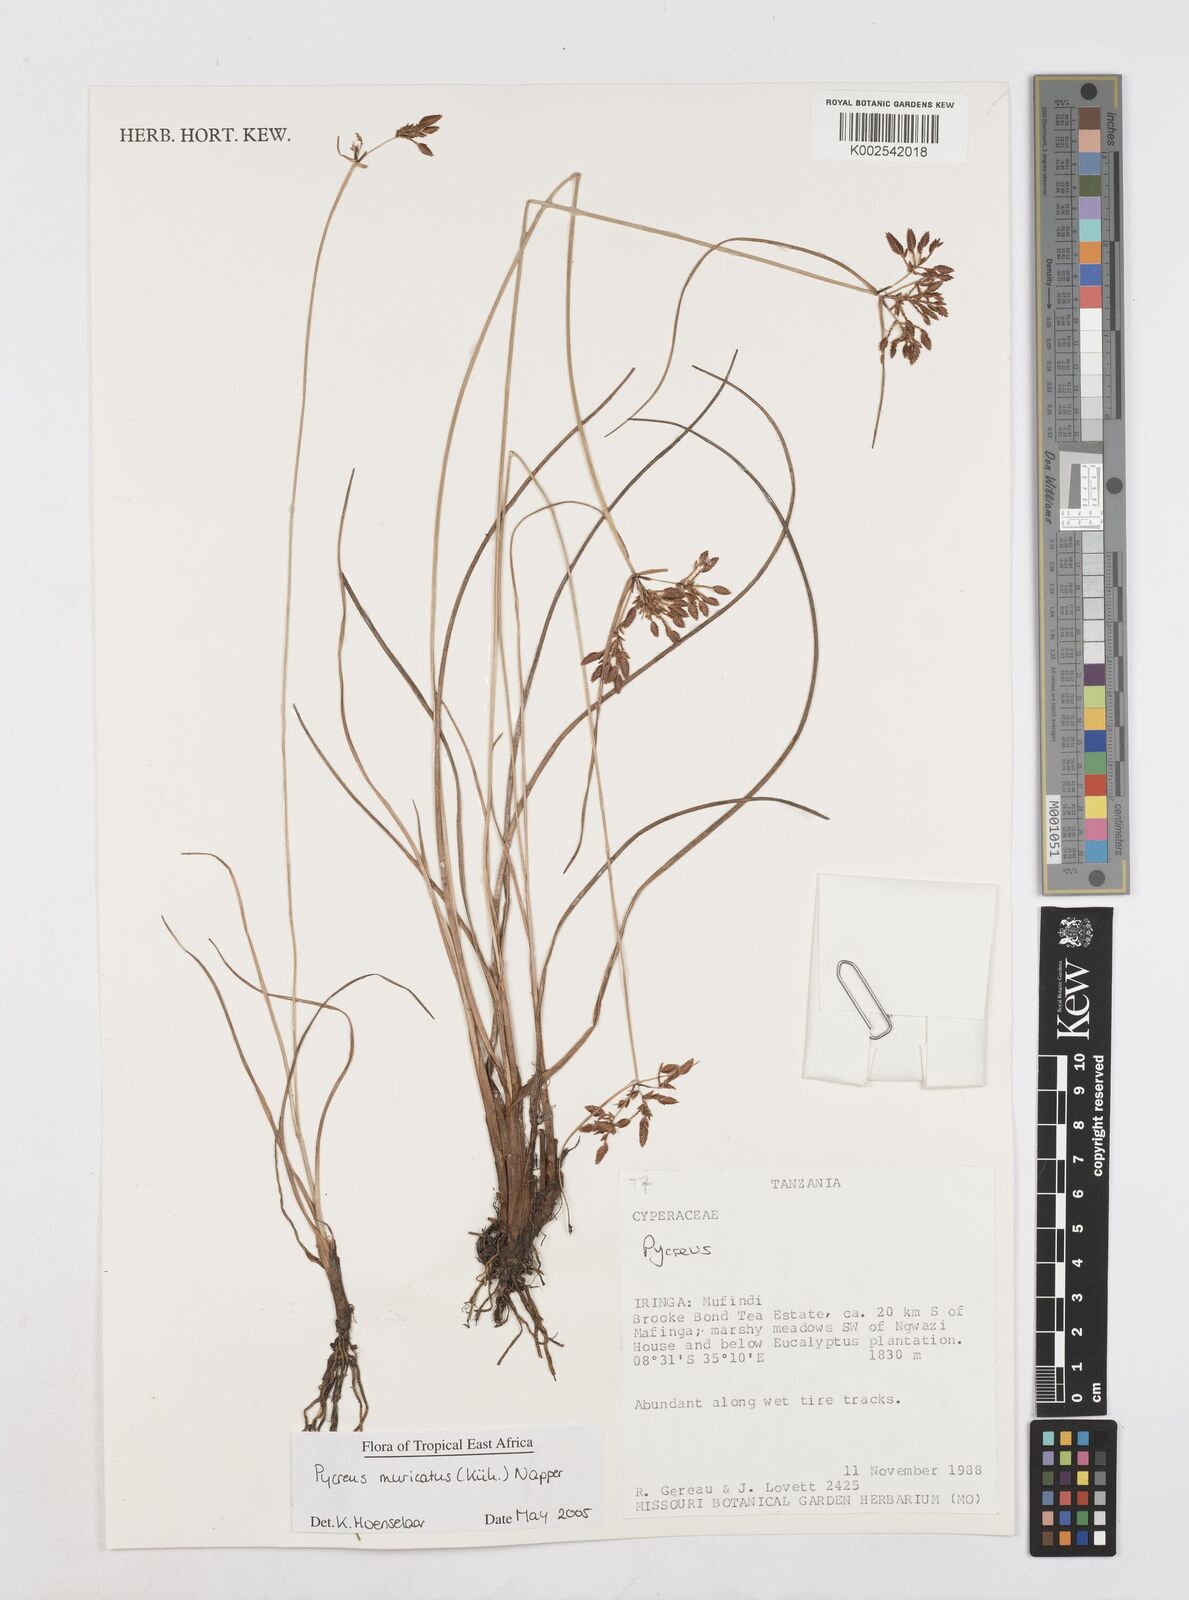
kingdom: Plantae
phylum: Tracheophyta
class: Liliopsida
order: Poales
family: Cyperaceae
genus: Cyperus
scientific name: Cyperus nigricans
